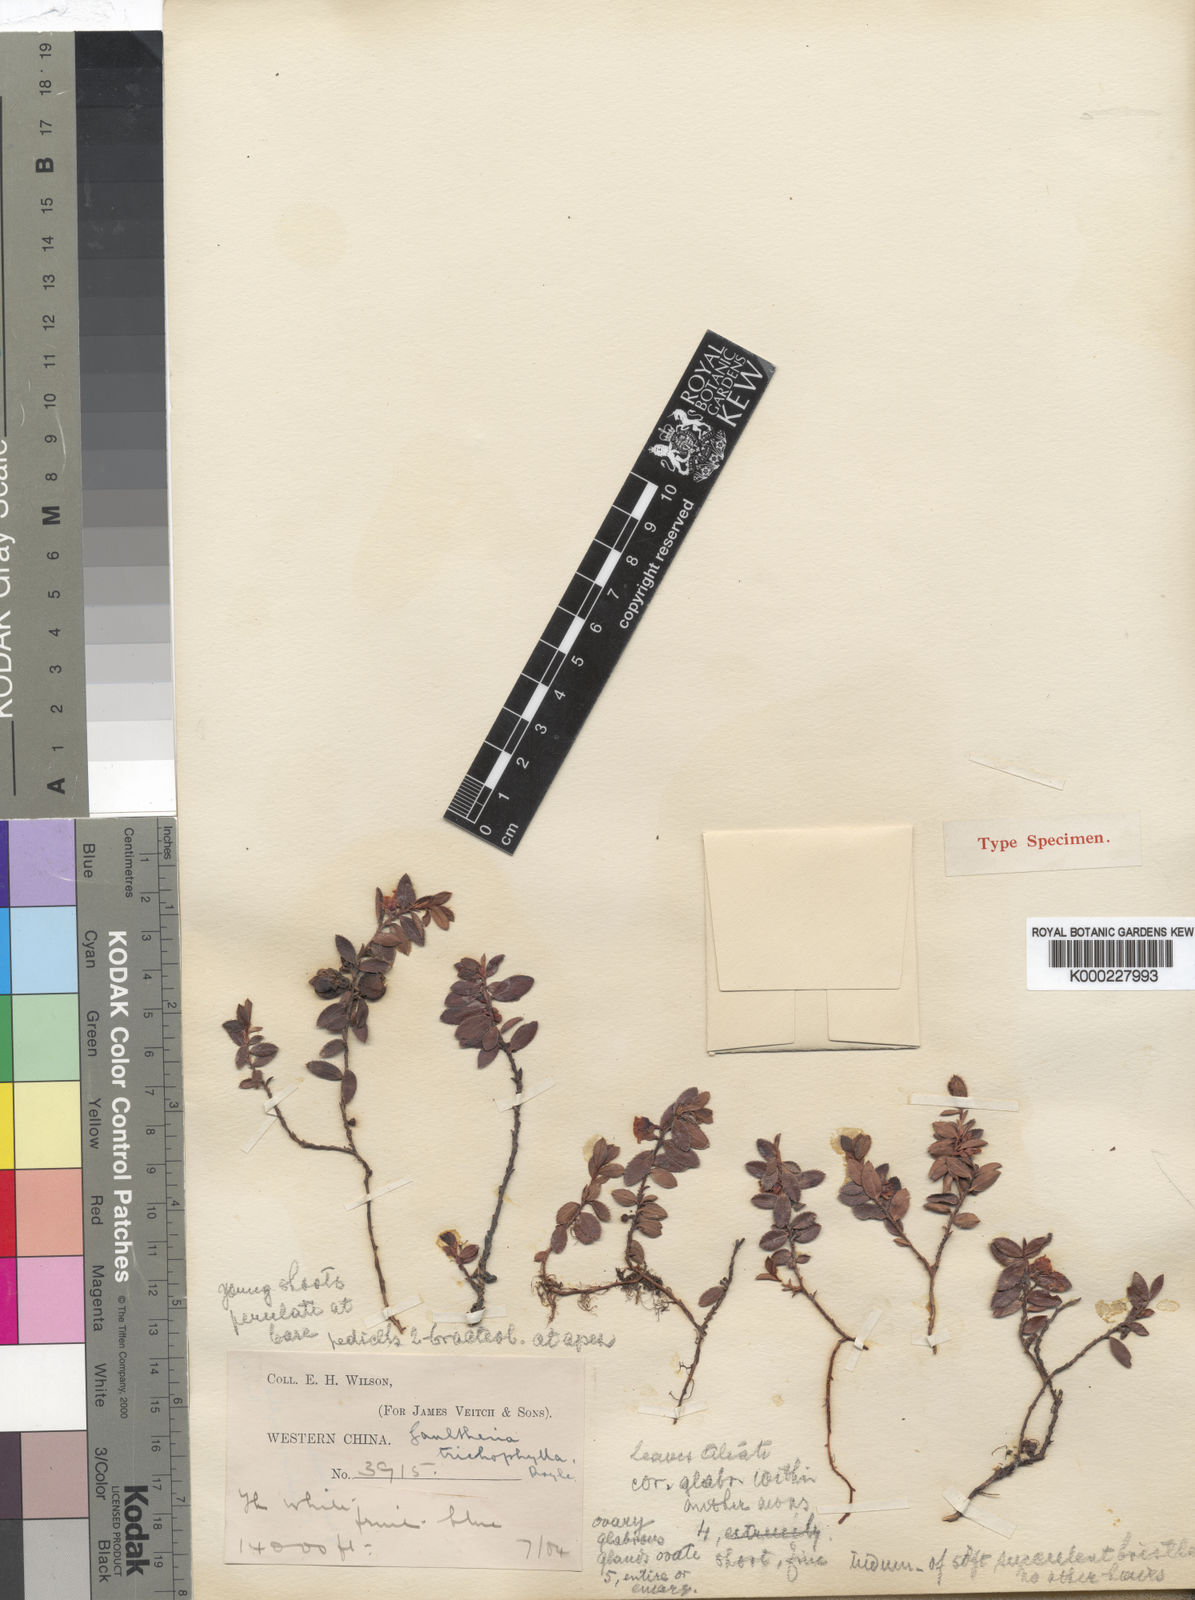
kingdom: Plantae
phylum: Tracheophyta
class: Magnoliopsida
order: Ericales
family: Ericaceae
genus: Gaultheria
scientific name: Gaultheria trichophylla
